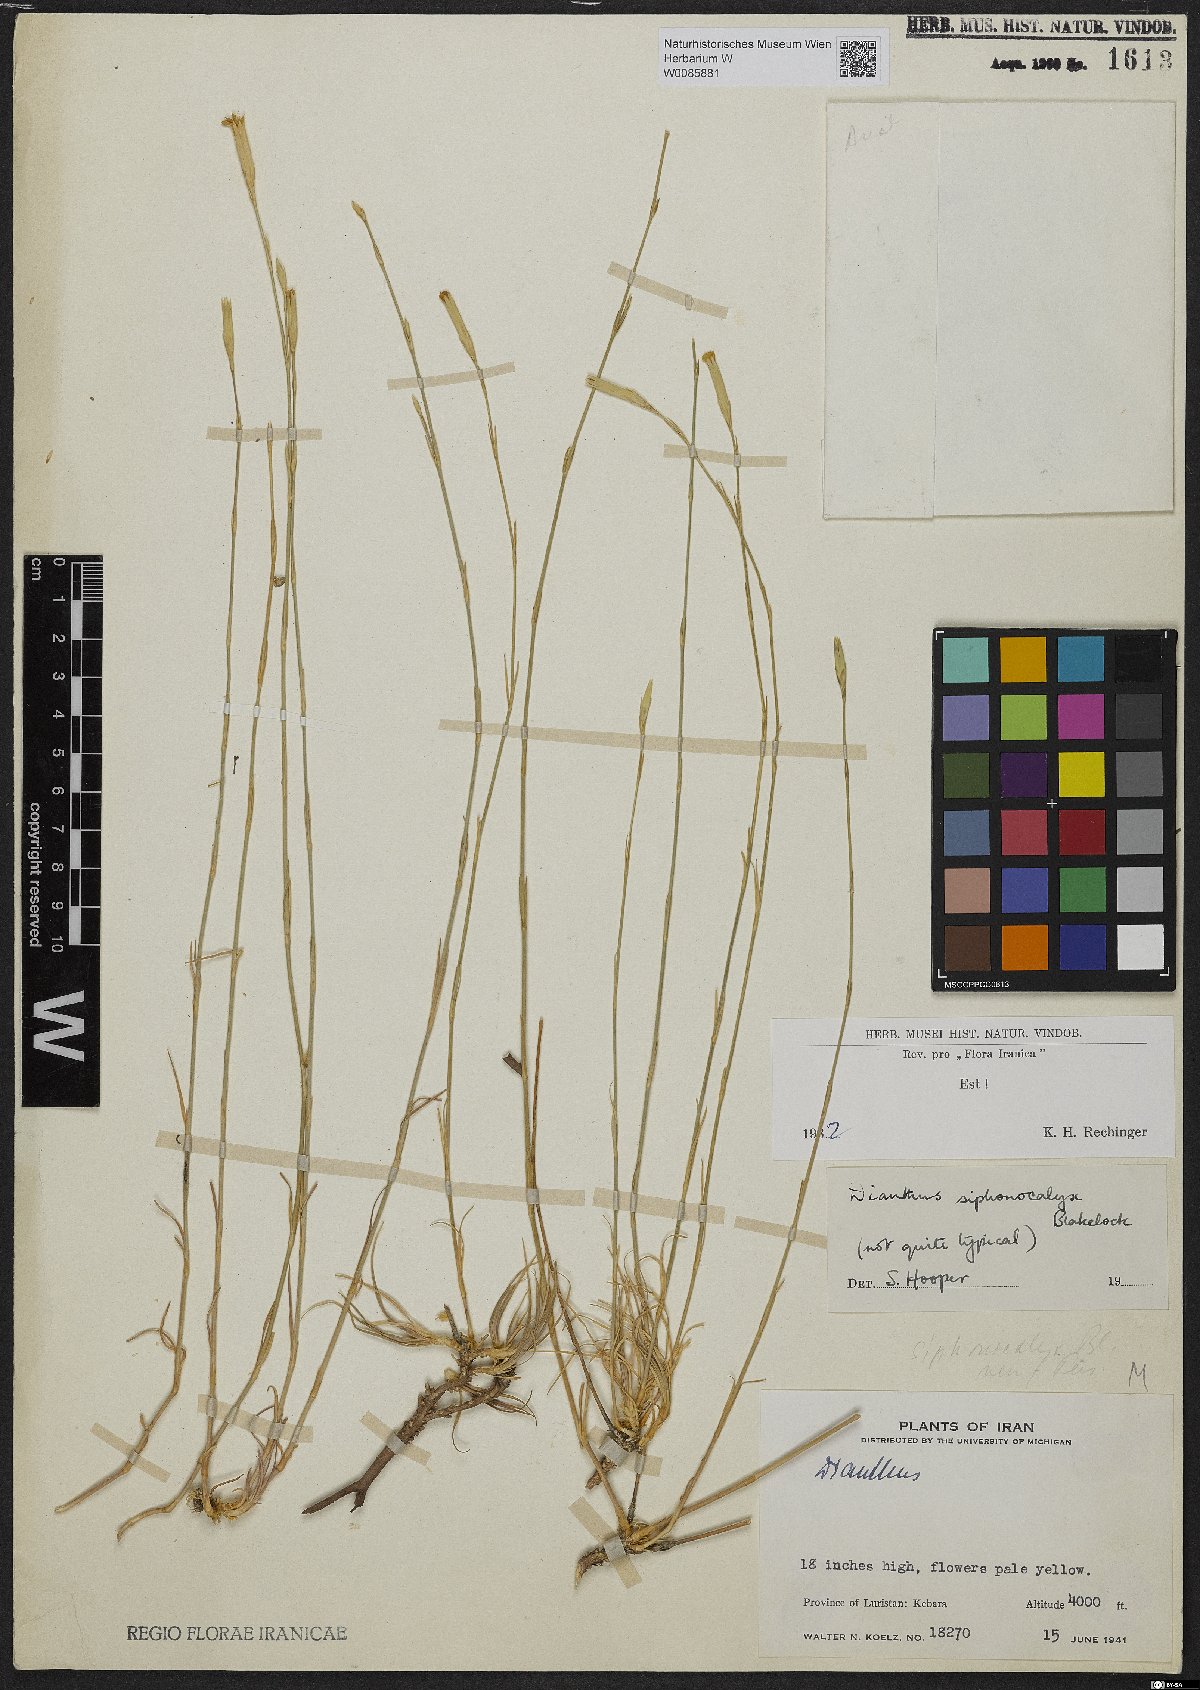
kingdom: Plantae
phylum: Tracheophyta
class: Magnoliopsida
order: Caryophyllales
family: Caryophyllaceae
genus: Dianthus
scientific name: Dianthus siphonocalyx
